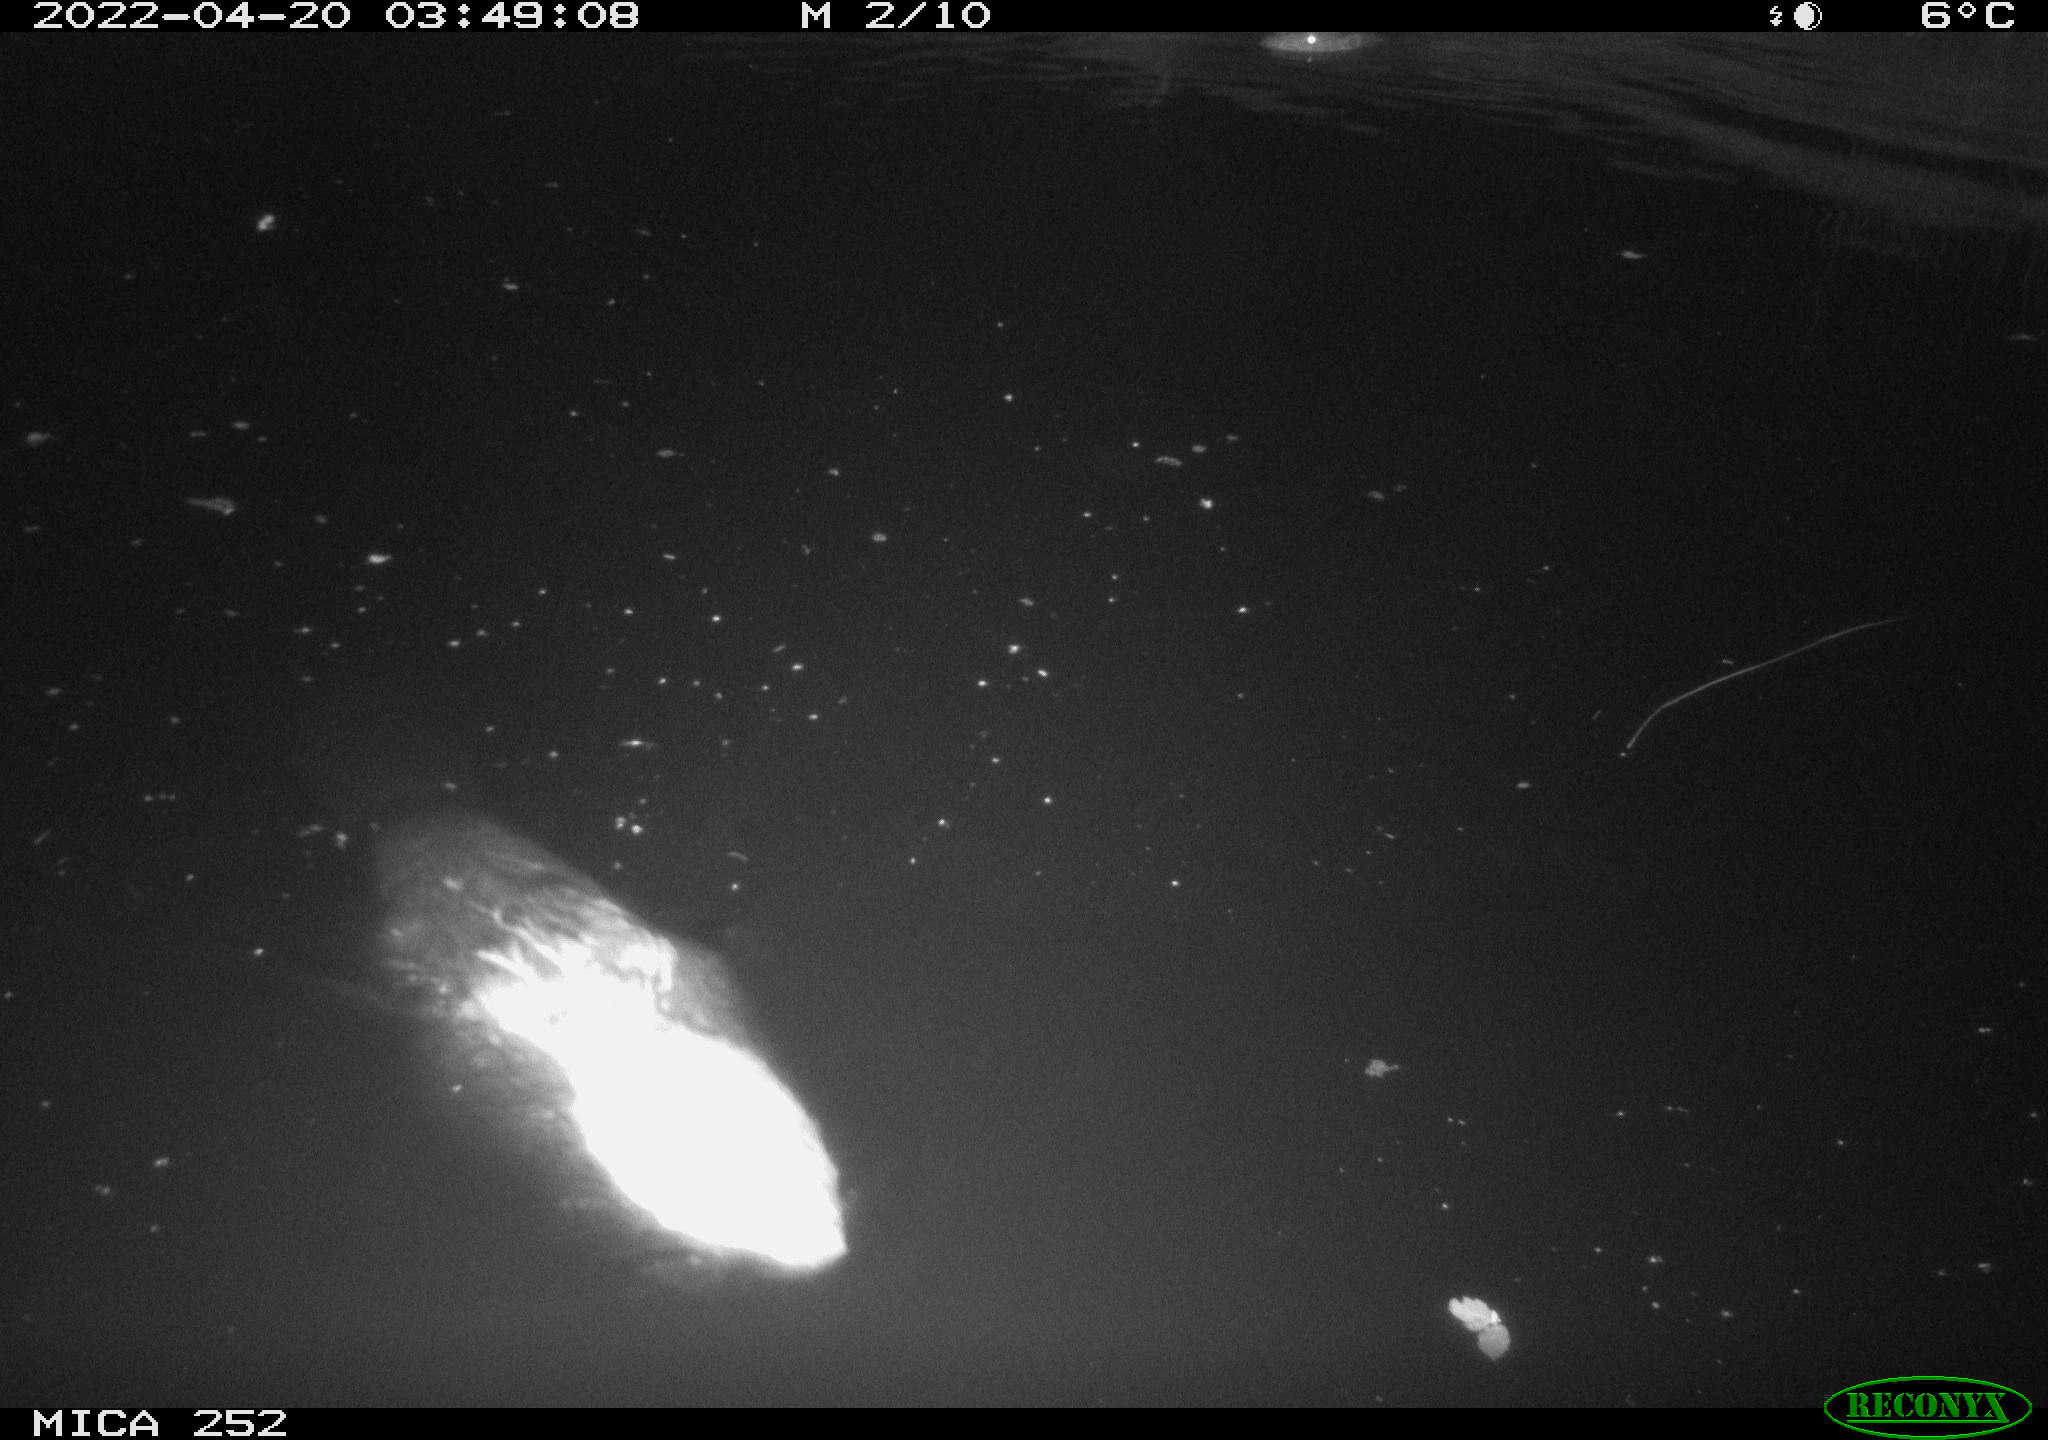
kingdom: Animalia
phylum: Chordata
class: Mammalia
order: Rodentia
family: Castoridae
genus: Castor
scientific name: Castor fiber
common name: Eurasian beaver
